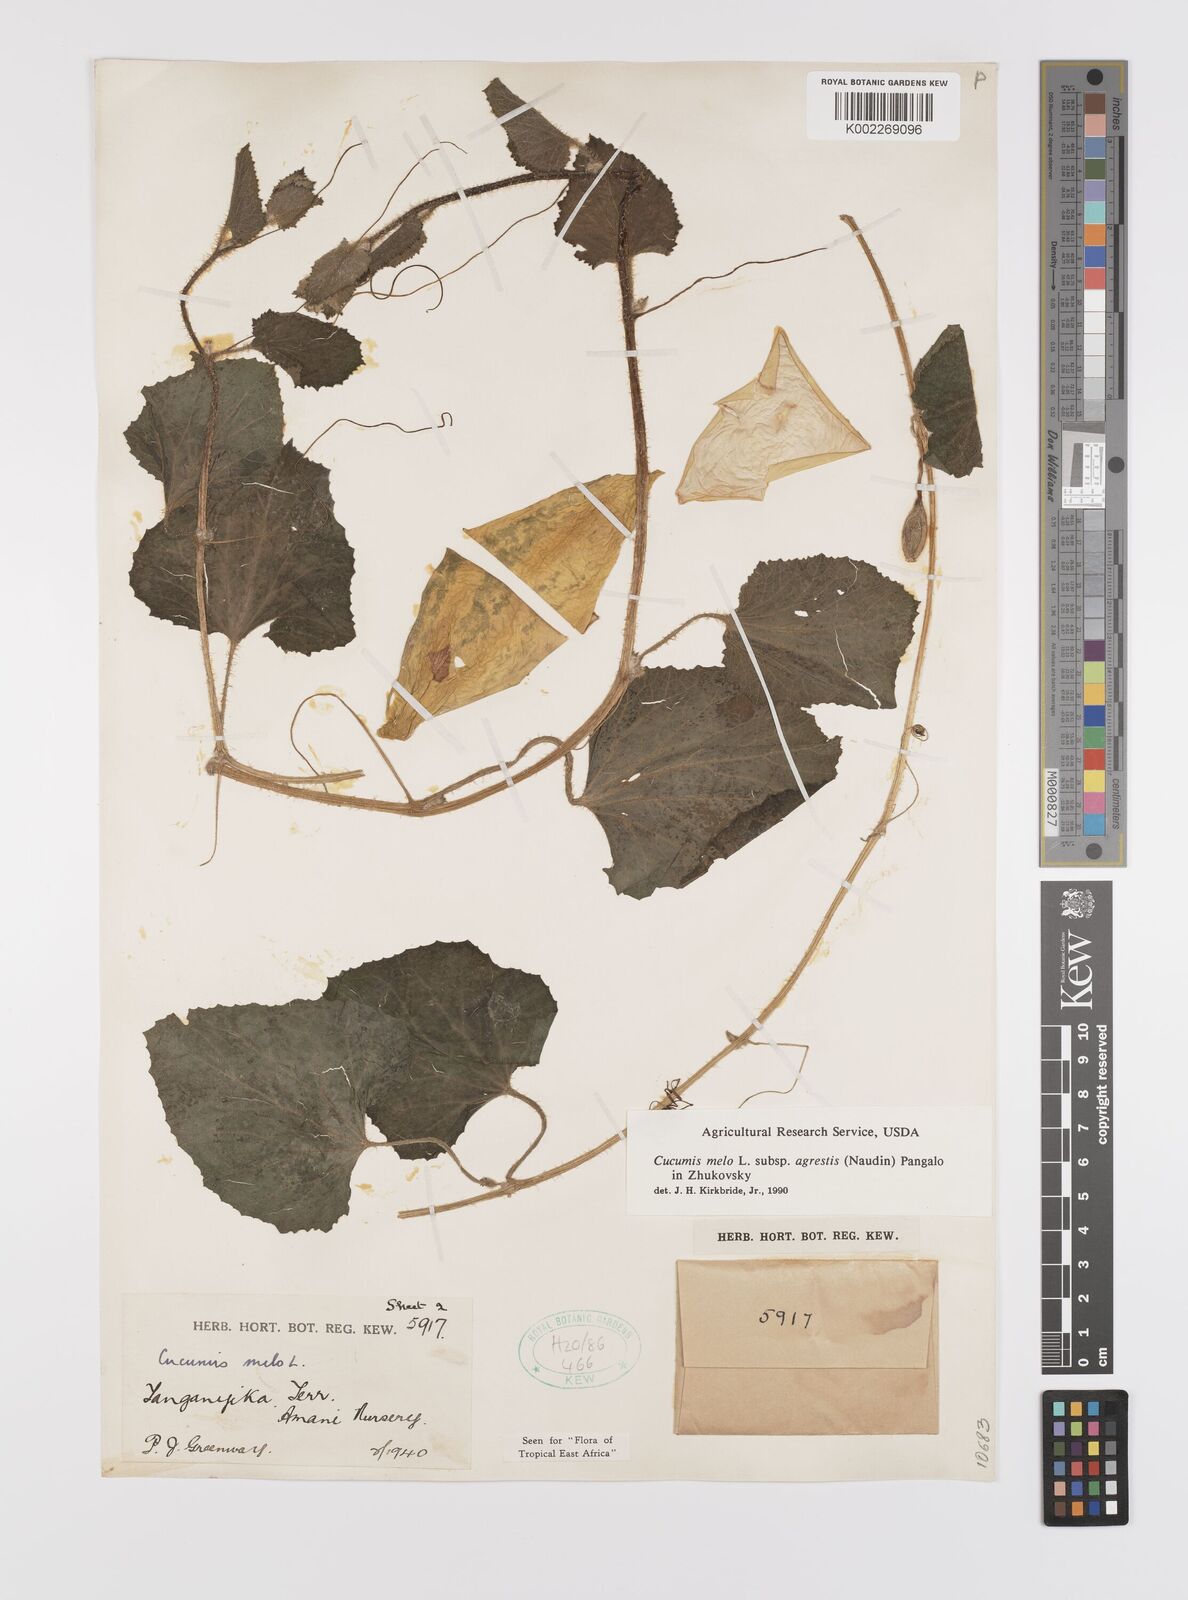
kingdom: Plantae
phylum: Tracheophyta
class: Magnoliopsida
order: Cucurbitales
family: Cucurbitaceae
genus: Cucumis
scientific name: Cucumis melo
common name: Melon
